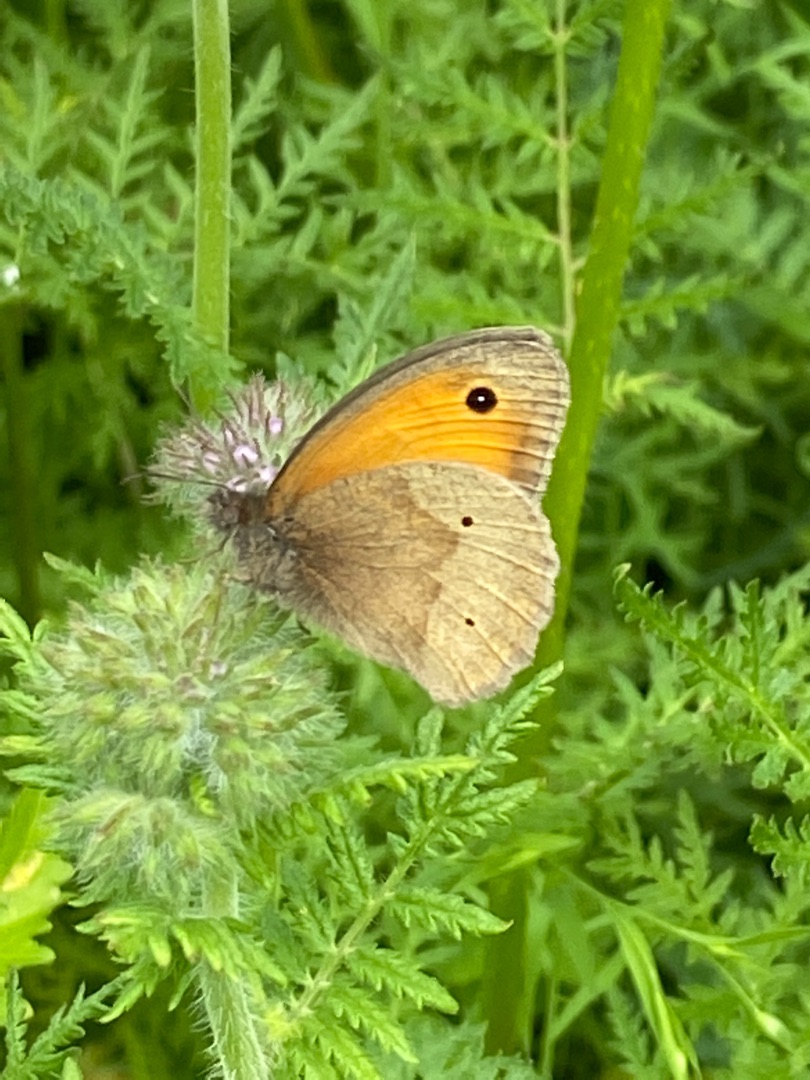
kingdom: Animalia
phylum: Arthropoda
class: Insecta
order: Lepidoptera
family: Nymphalidae
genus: Maniola
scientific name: Maniola jurtina
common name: Græsrandøje
